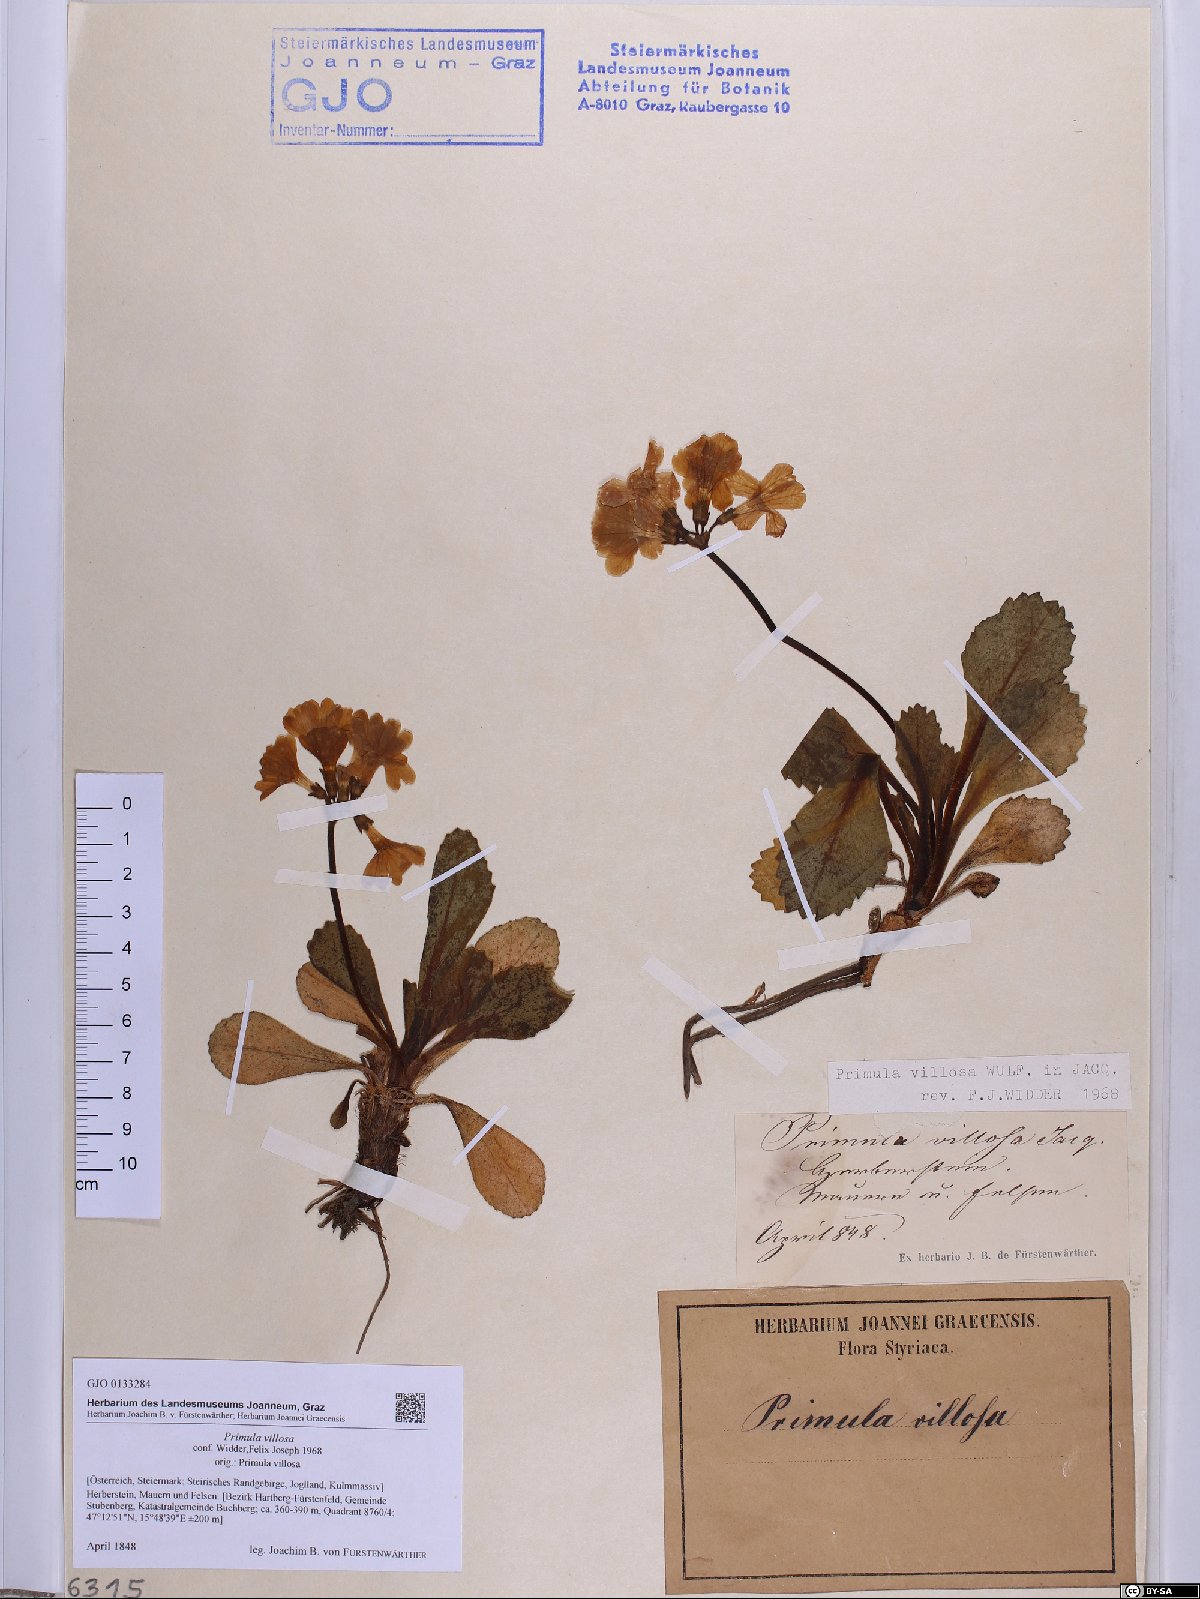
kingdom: Plantae
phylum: Tracheophyta
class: Magnoliopsida
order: Ericales
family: Primulaceae
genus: Primula
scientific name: Primula villosa
